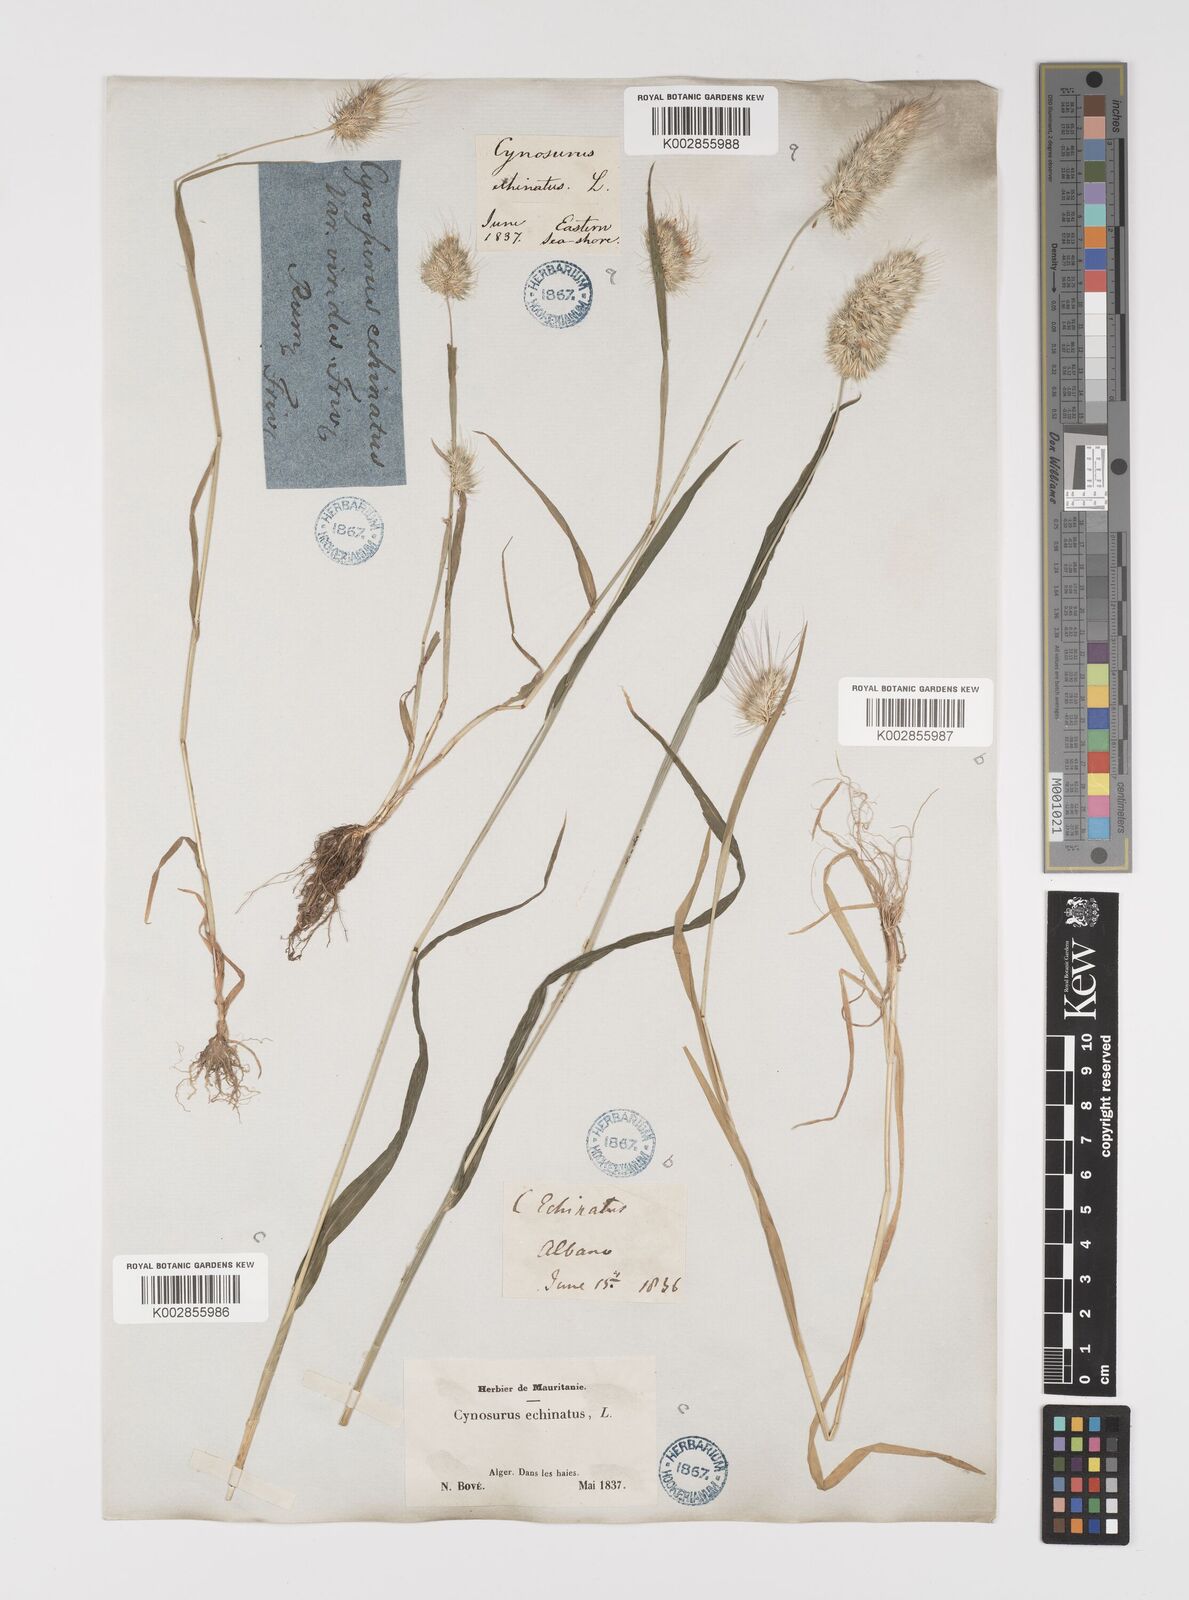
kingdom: Plantae
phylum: Tracheophyta
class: Liliopsida
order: Poales
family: Poaceae
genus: Cynosurus
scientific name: Cynosurus echinatus
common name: Rough dog's-tail
